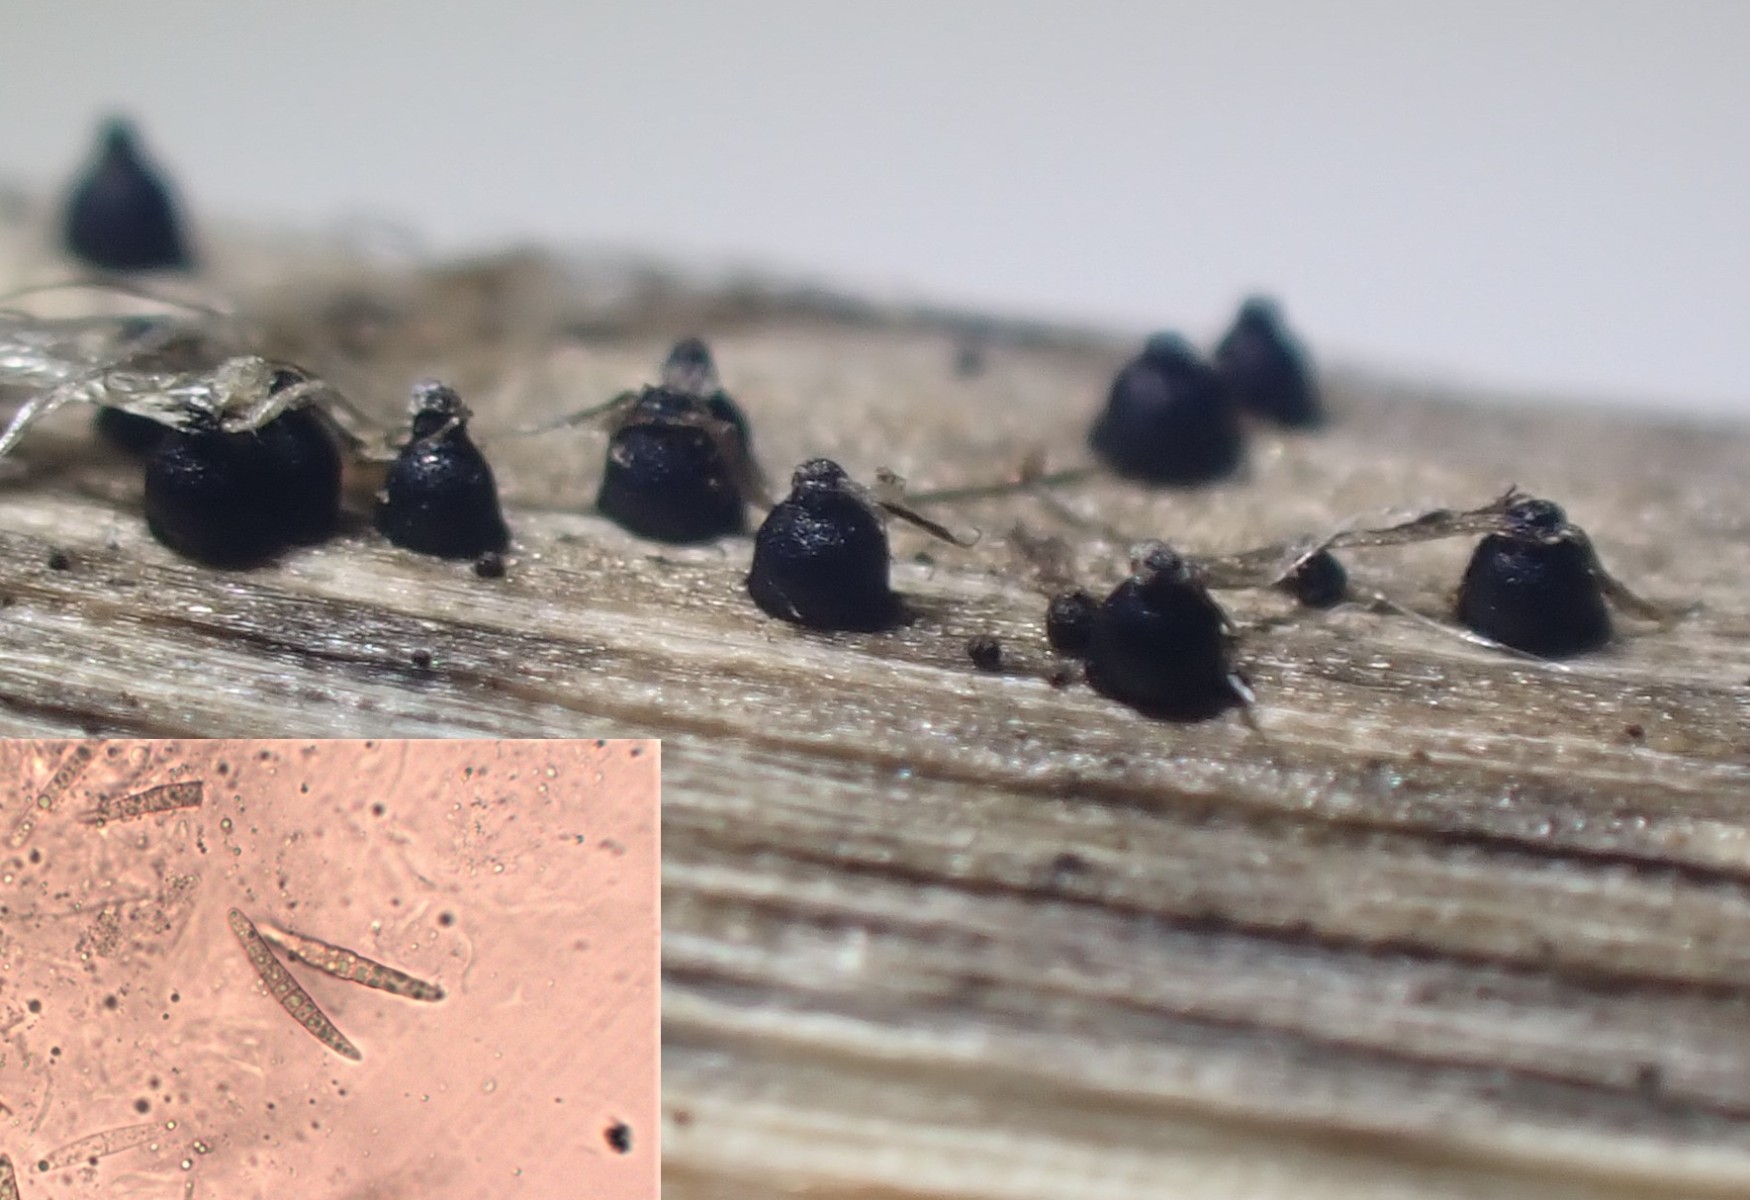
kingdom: Fungi
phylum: Ascomycota
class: Dothideomycetes
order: Pleosporales
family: Leptosphaeriaceae
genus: Leptosphaeria
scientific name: Leptosphaeria acuta
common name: spids kulkegle
